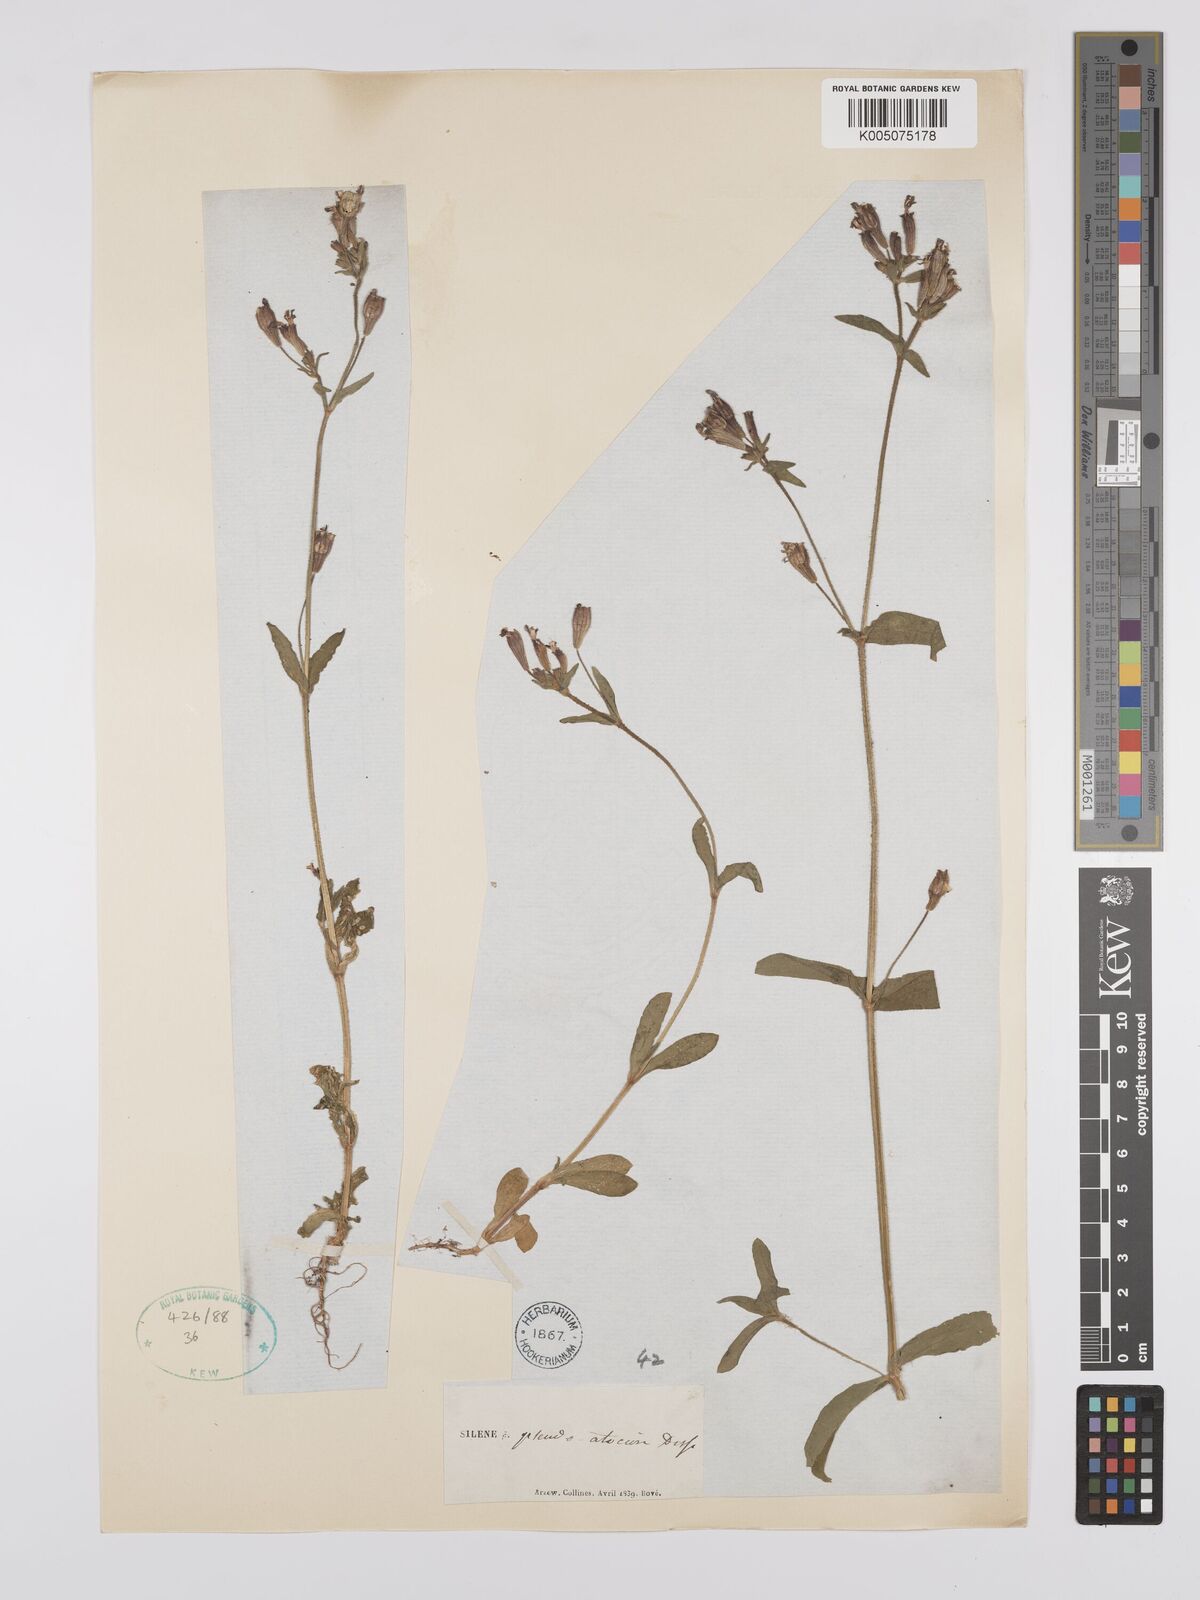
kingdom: Plantae
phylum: Tracheophyta
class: Magnoliopsida
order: Caryophyllales
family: Caryophyllaceae
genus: Silene
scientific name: Silene pseudoatocion
